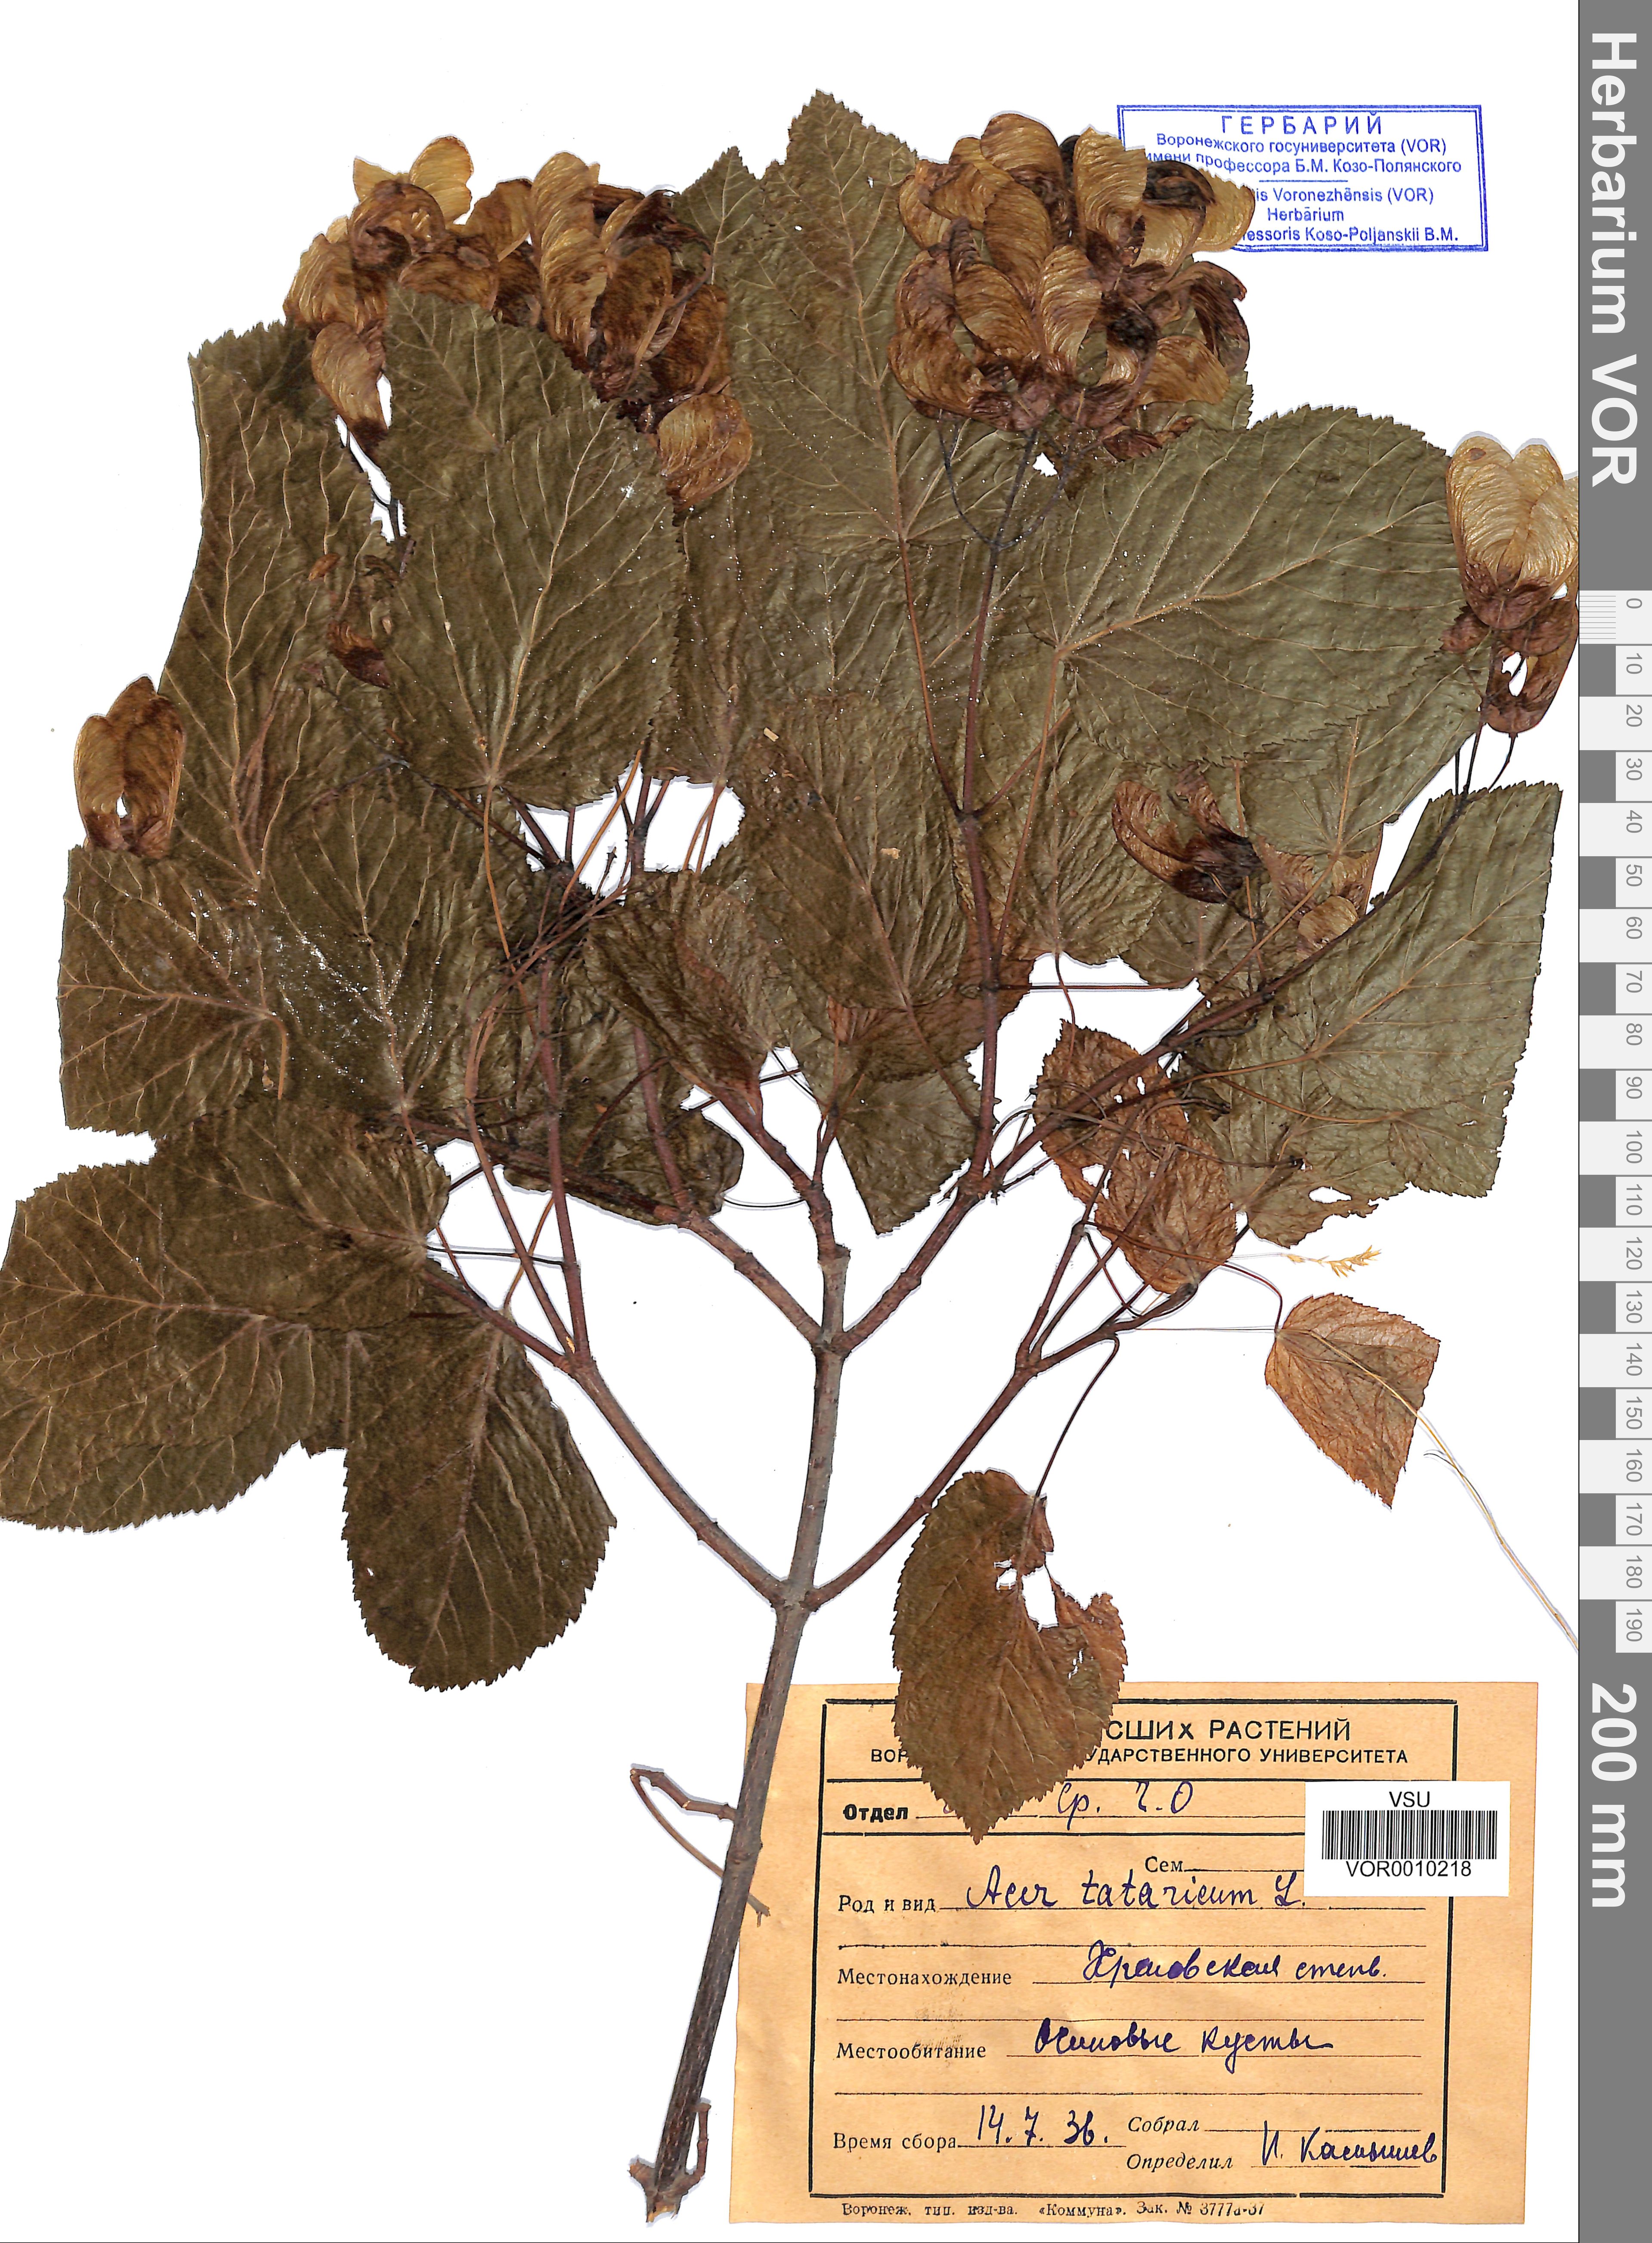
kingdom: Plantae
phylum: Tracheophyta
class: Magnoliopsida
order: Sapindales
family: Sapindaceae
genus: Acer
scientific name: Acer tataricum
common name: Tartar maple
